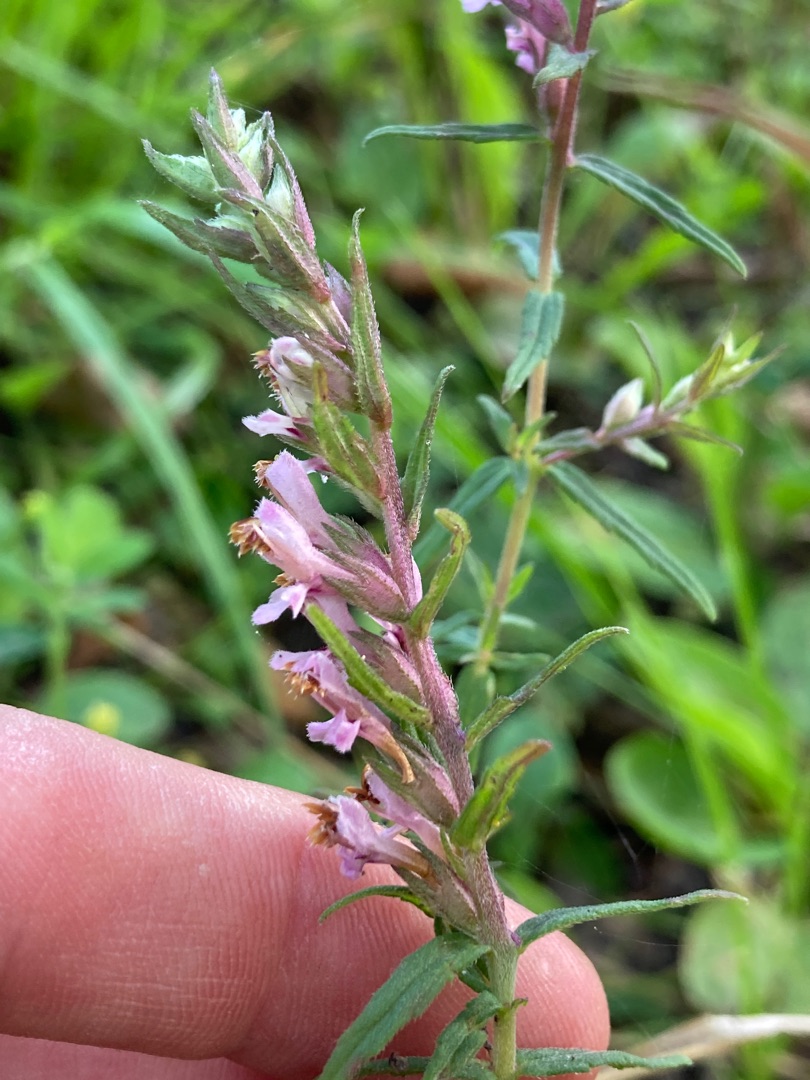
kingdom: Plantae
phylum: Tracheophyta
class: Magnoliopsida
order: Lamiales
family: Orobanchaceae
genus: Odontites
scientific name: Odontites vulgaris
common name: Høst-rødtop
